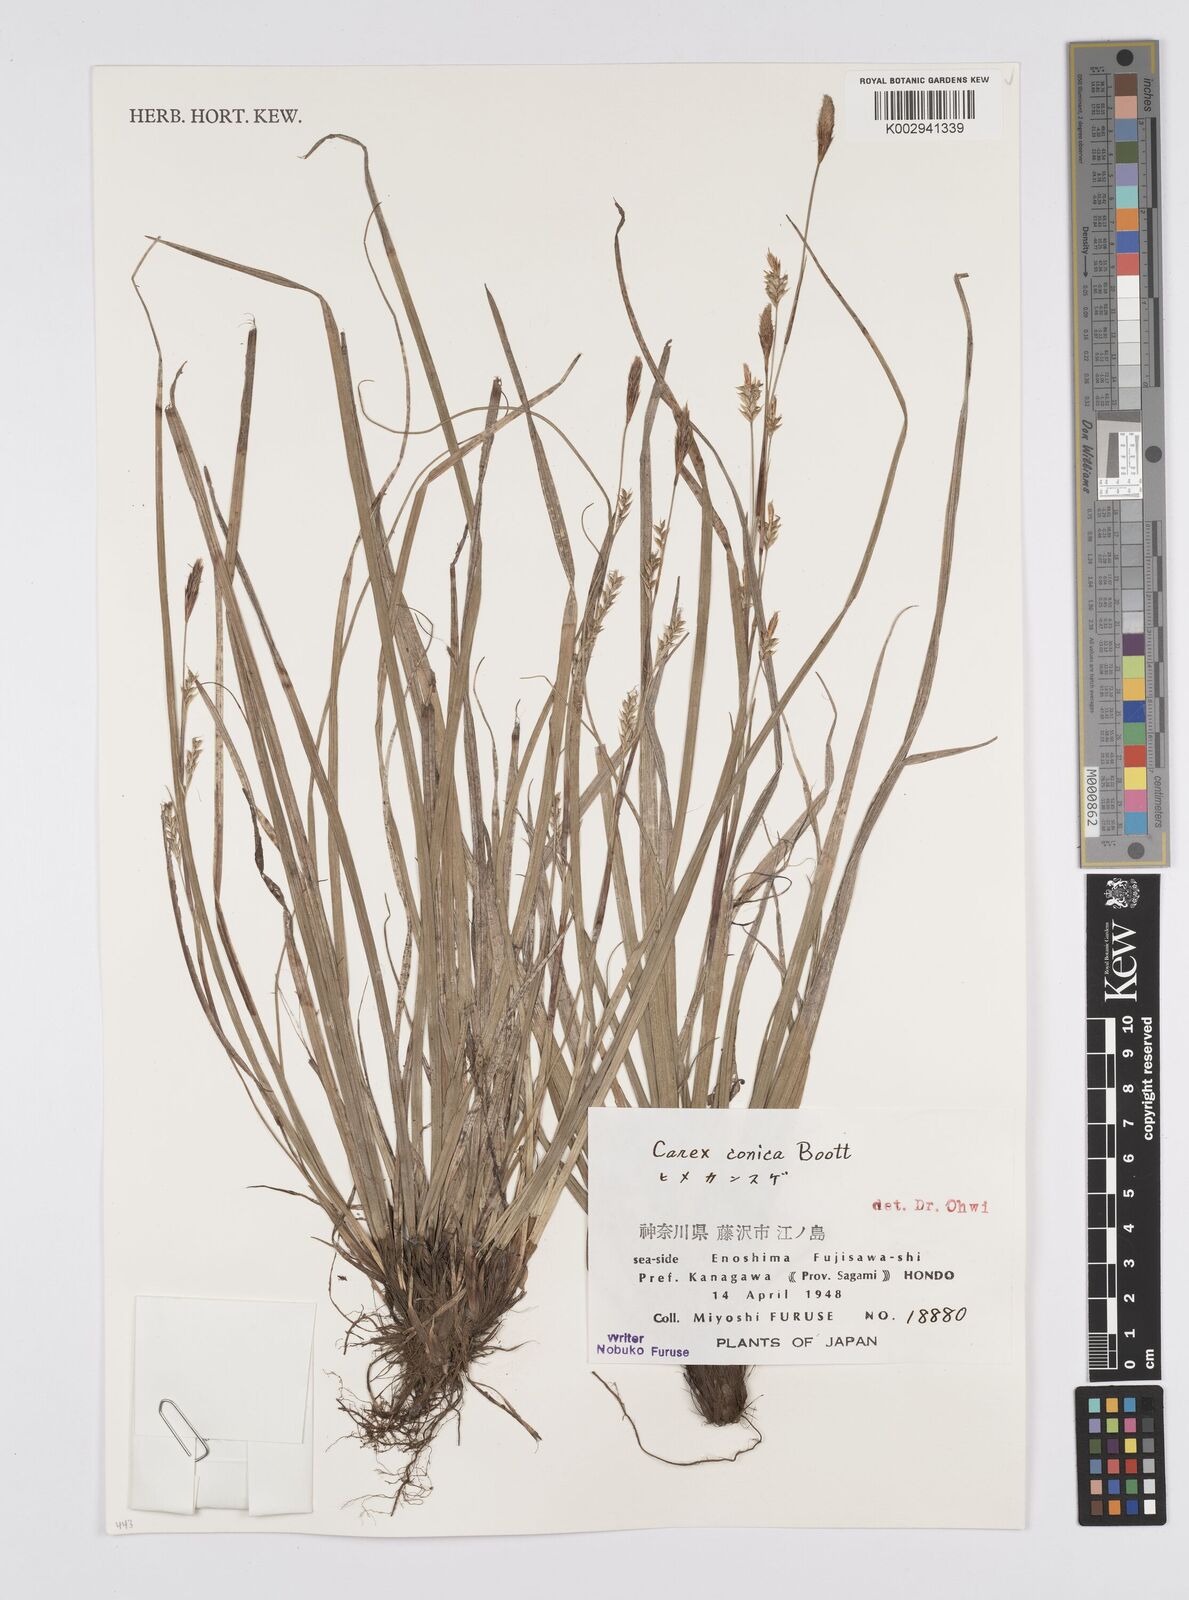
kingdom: Plantae
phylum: Tracheophyta
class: Liliopsida
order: Poales
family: Cyperaceae
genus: Carex
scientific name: Carex conica
